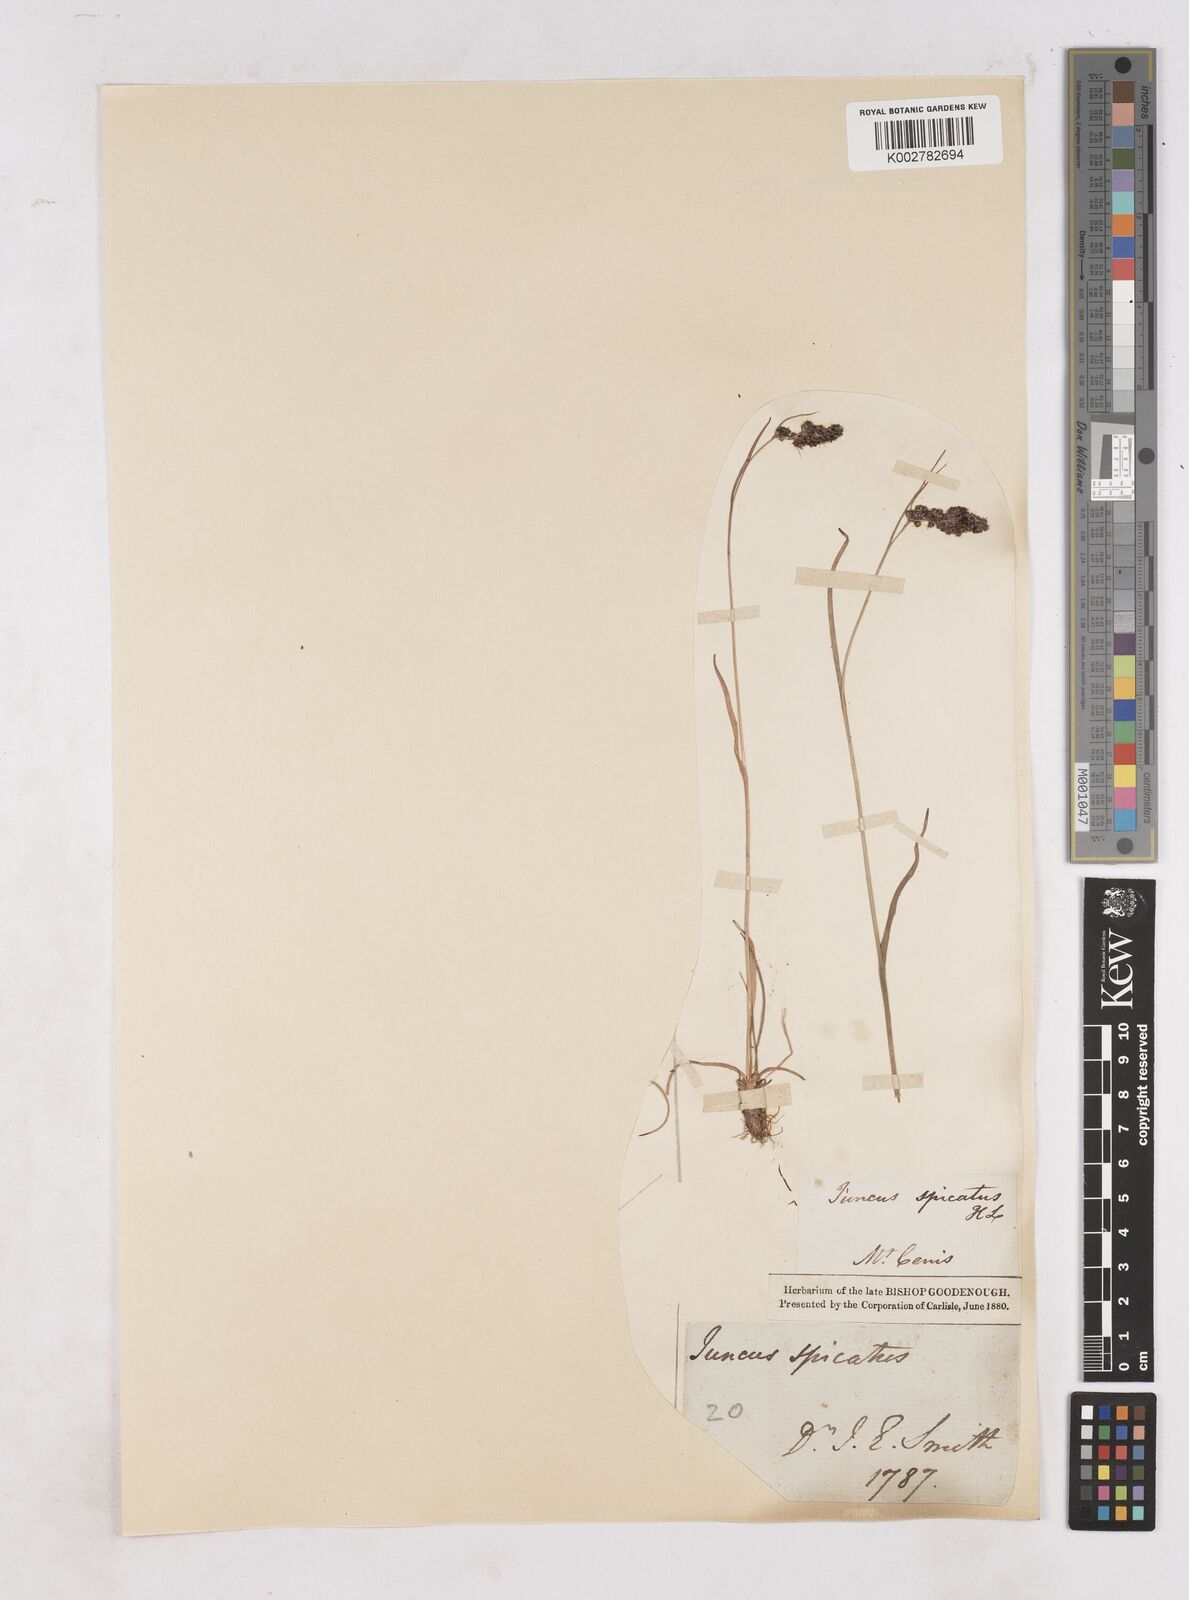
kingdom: Plantae
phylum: Tracheophyta
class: Liliopsida
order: Poales
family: Juncaceae
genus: Luzula
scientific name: Luzula spicata
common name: Spiked wood-rush
